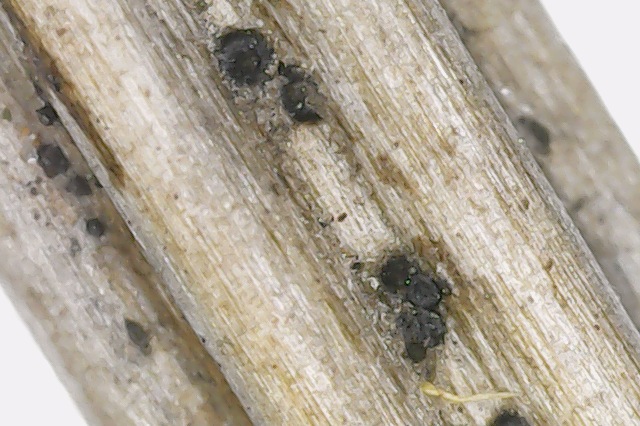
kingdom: Fungi
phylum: Ascomycota
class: Dothideomycetes
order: Pleosporales
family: Phaeosphaeriaceae
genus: Pseudoophiobolus
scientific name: Pseudoophiobolus rosae
